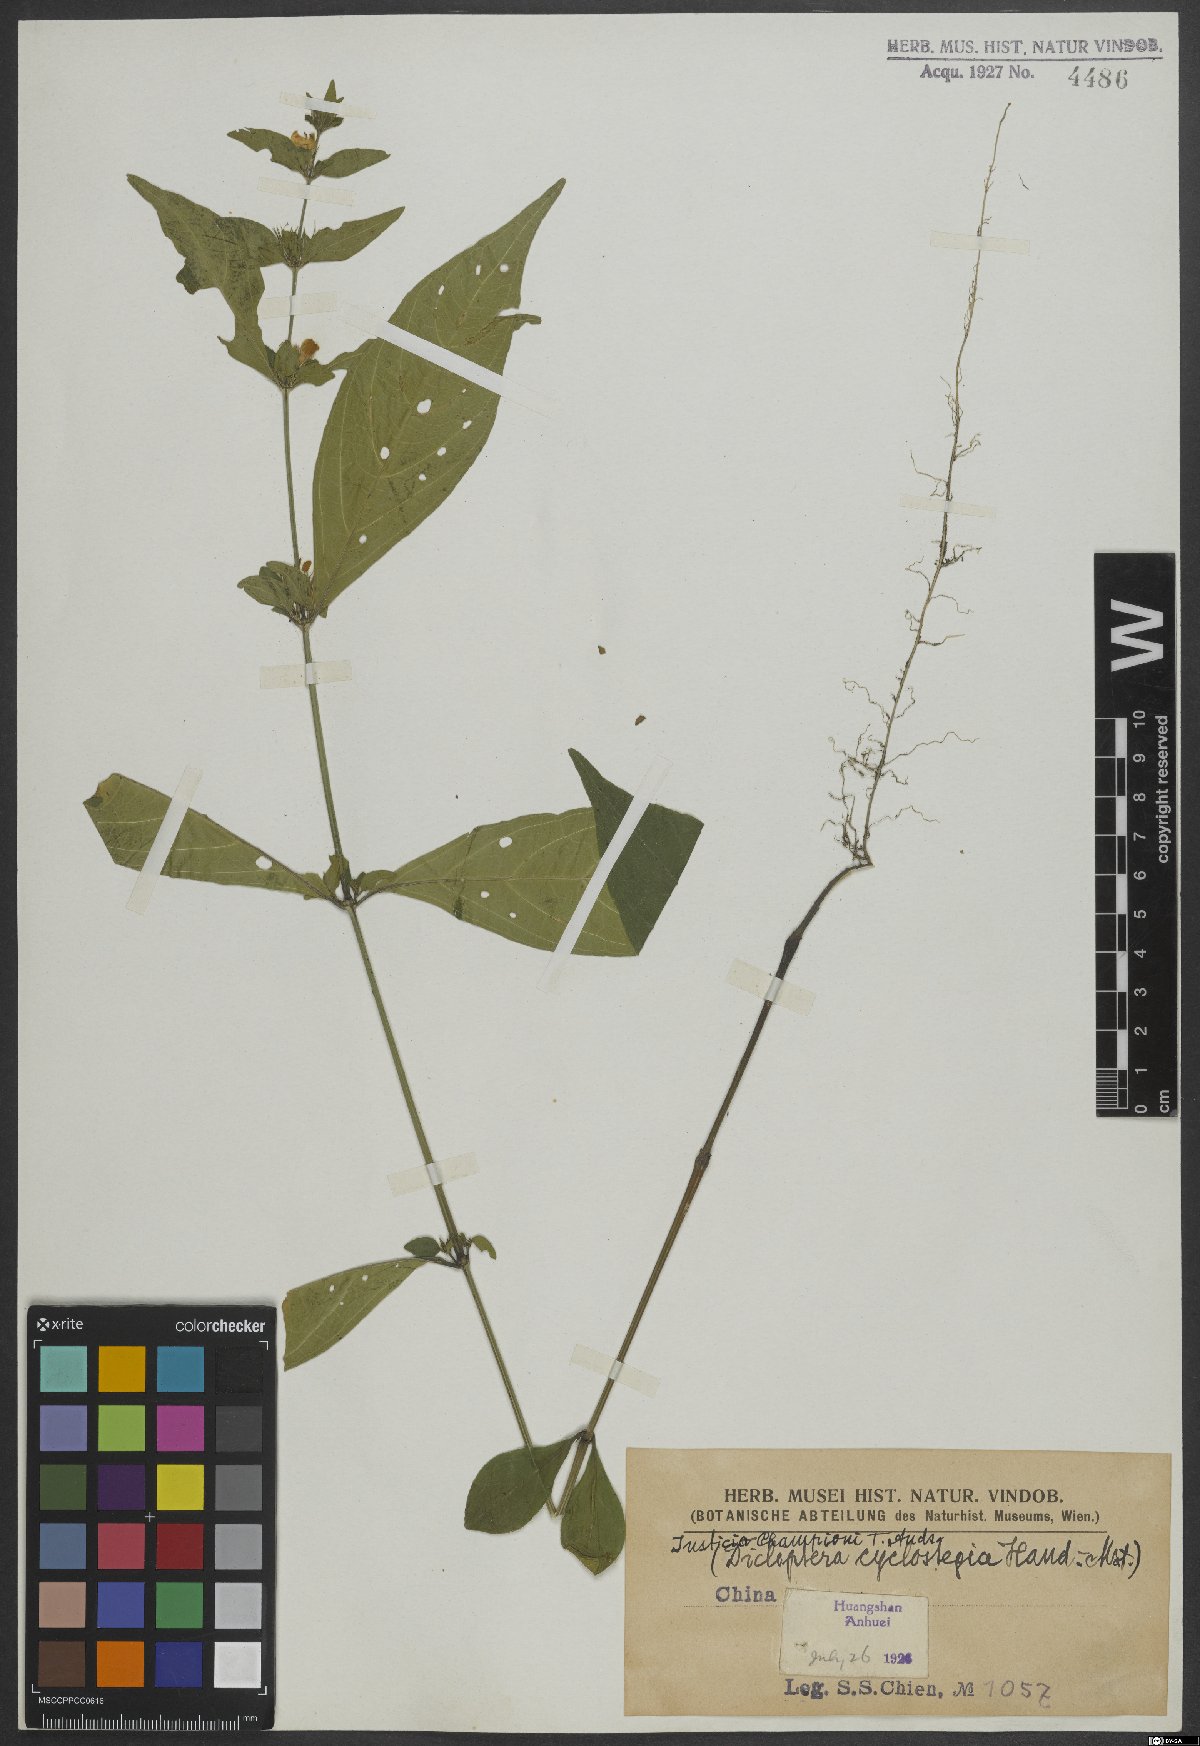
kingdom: Plantae
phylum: Tracheophyta
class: Magnoliopsida
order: Lamiales
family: Acanthaceae
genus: Justicia
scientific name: Justicia cyclostegia
